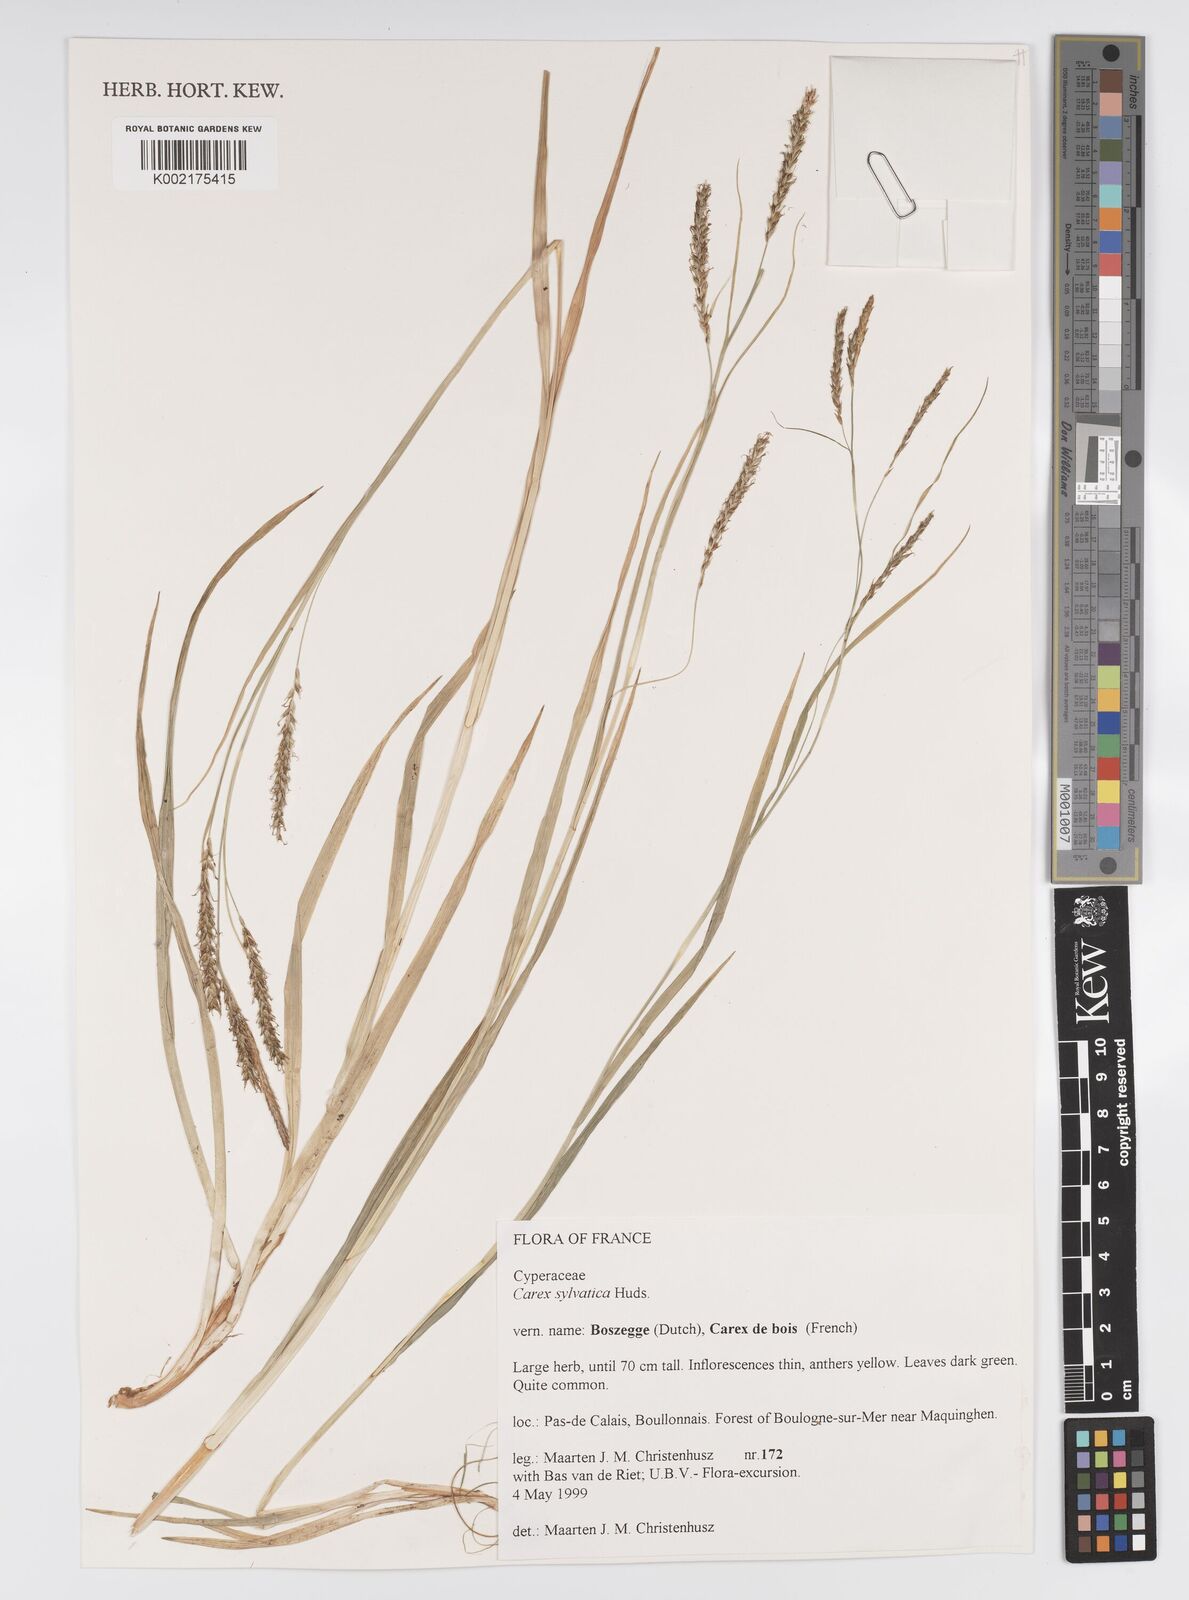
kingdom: Plantae
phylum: Tracheophyta
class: Liliopsida
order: Poales
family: Cyperaceae
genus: Carex
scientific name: Carex sylvatica
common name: Wood-sedge
